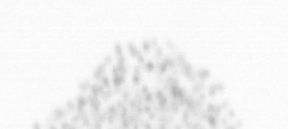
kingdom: Chromista
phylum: Ochrophyta
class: Bacillariophyceae
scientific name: Bacillariophyceae
